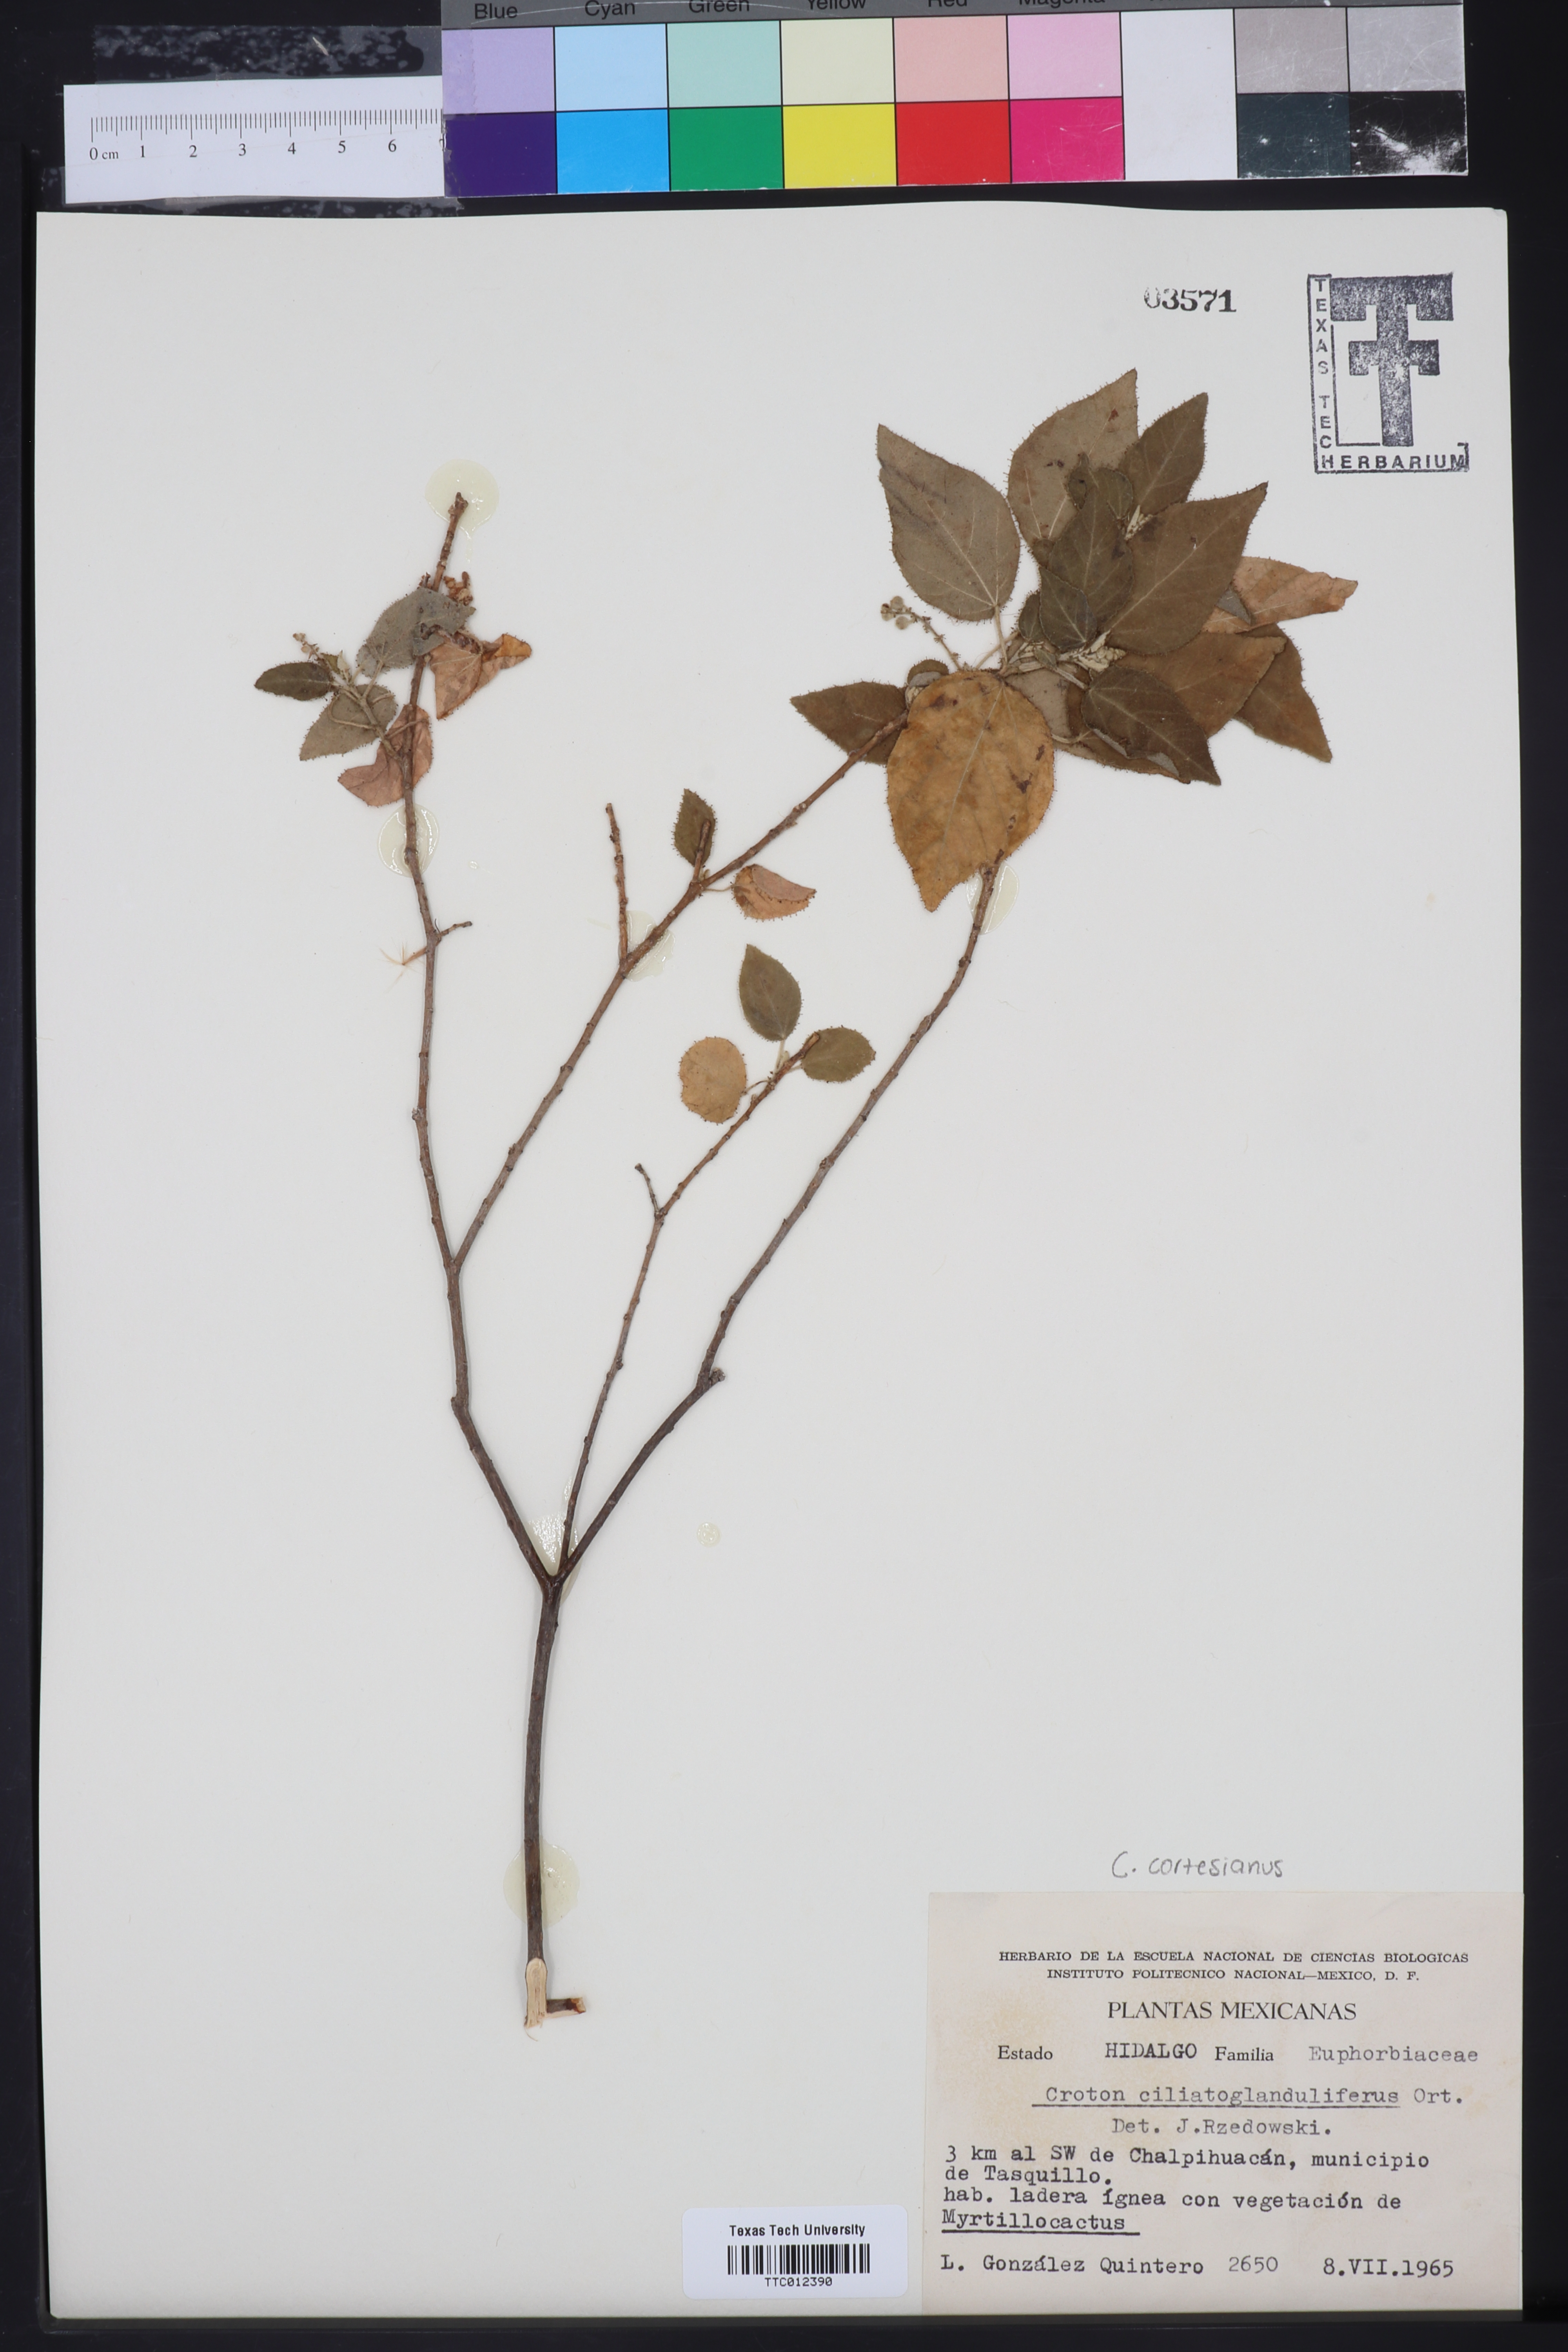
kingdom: Plantae
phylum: Tracheophyta
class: Magnoliopsida
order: Malpighiales
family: Euphorbiaceae
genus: Croton
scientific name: Croton ciliatoglandulifer
